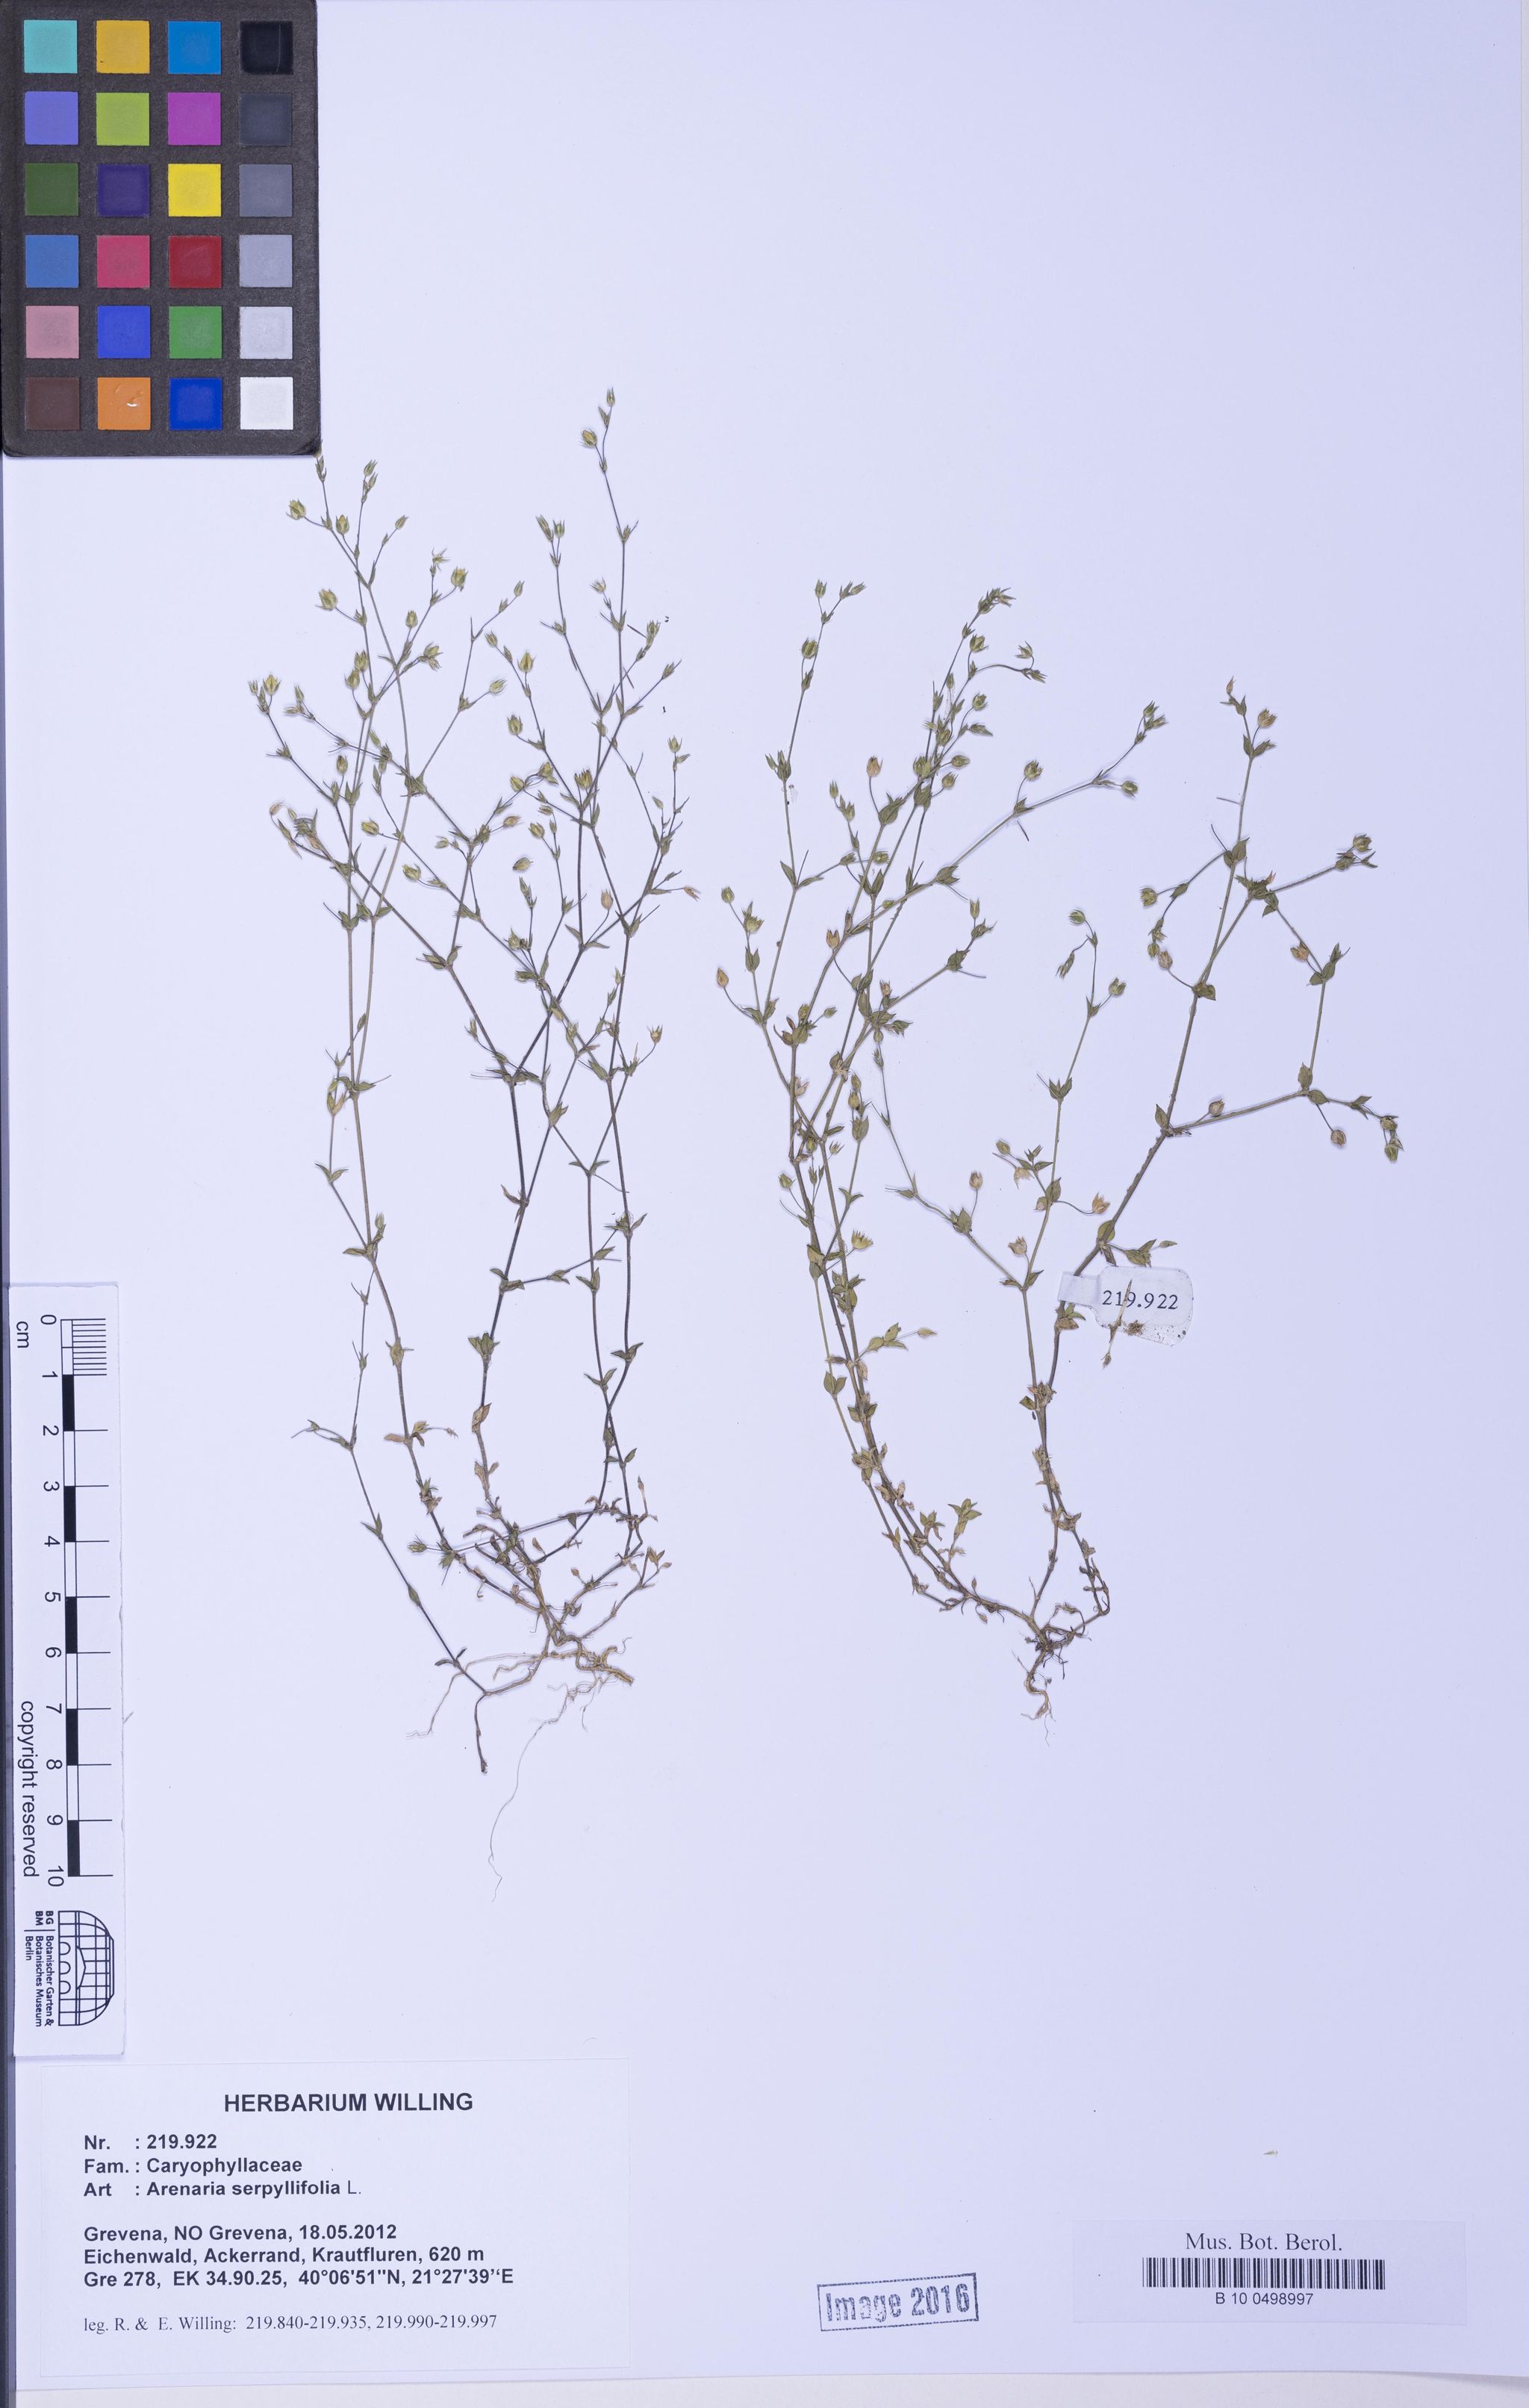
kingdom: Plantae
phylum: Tracheophyta
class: Magnoliopsida
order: Caryophyllales
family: Caryophyllaceae
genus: Arenaria
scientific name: Arenaria serpyllifolia
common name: Thyme-leaved sandwort
